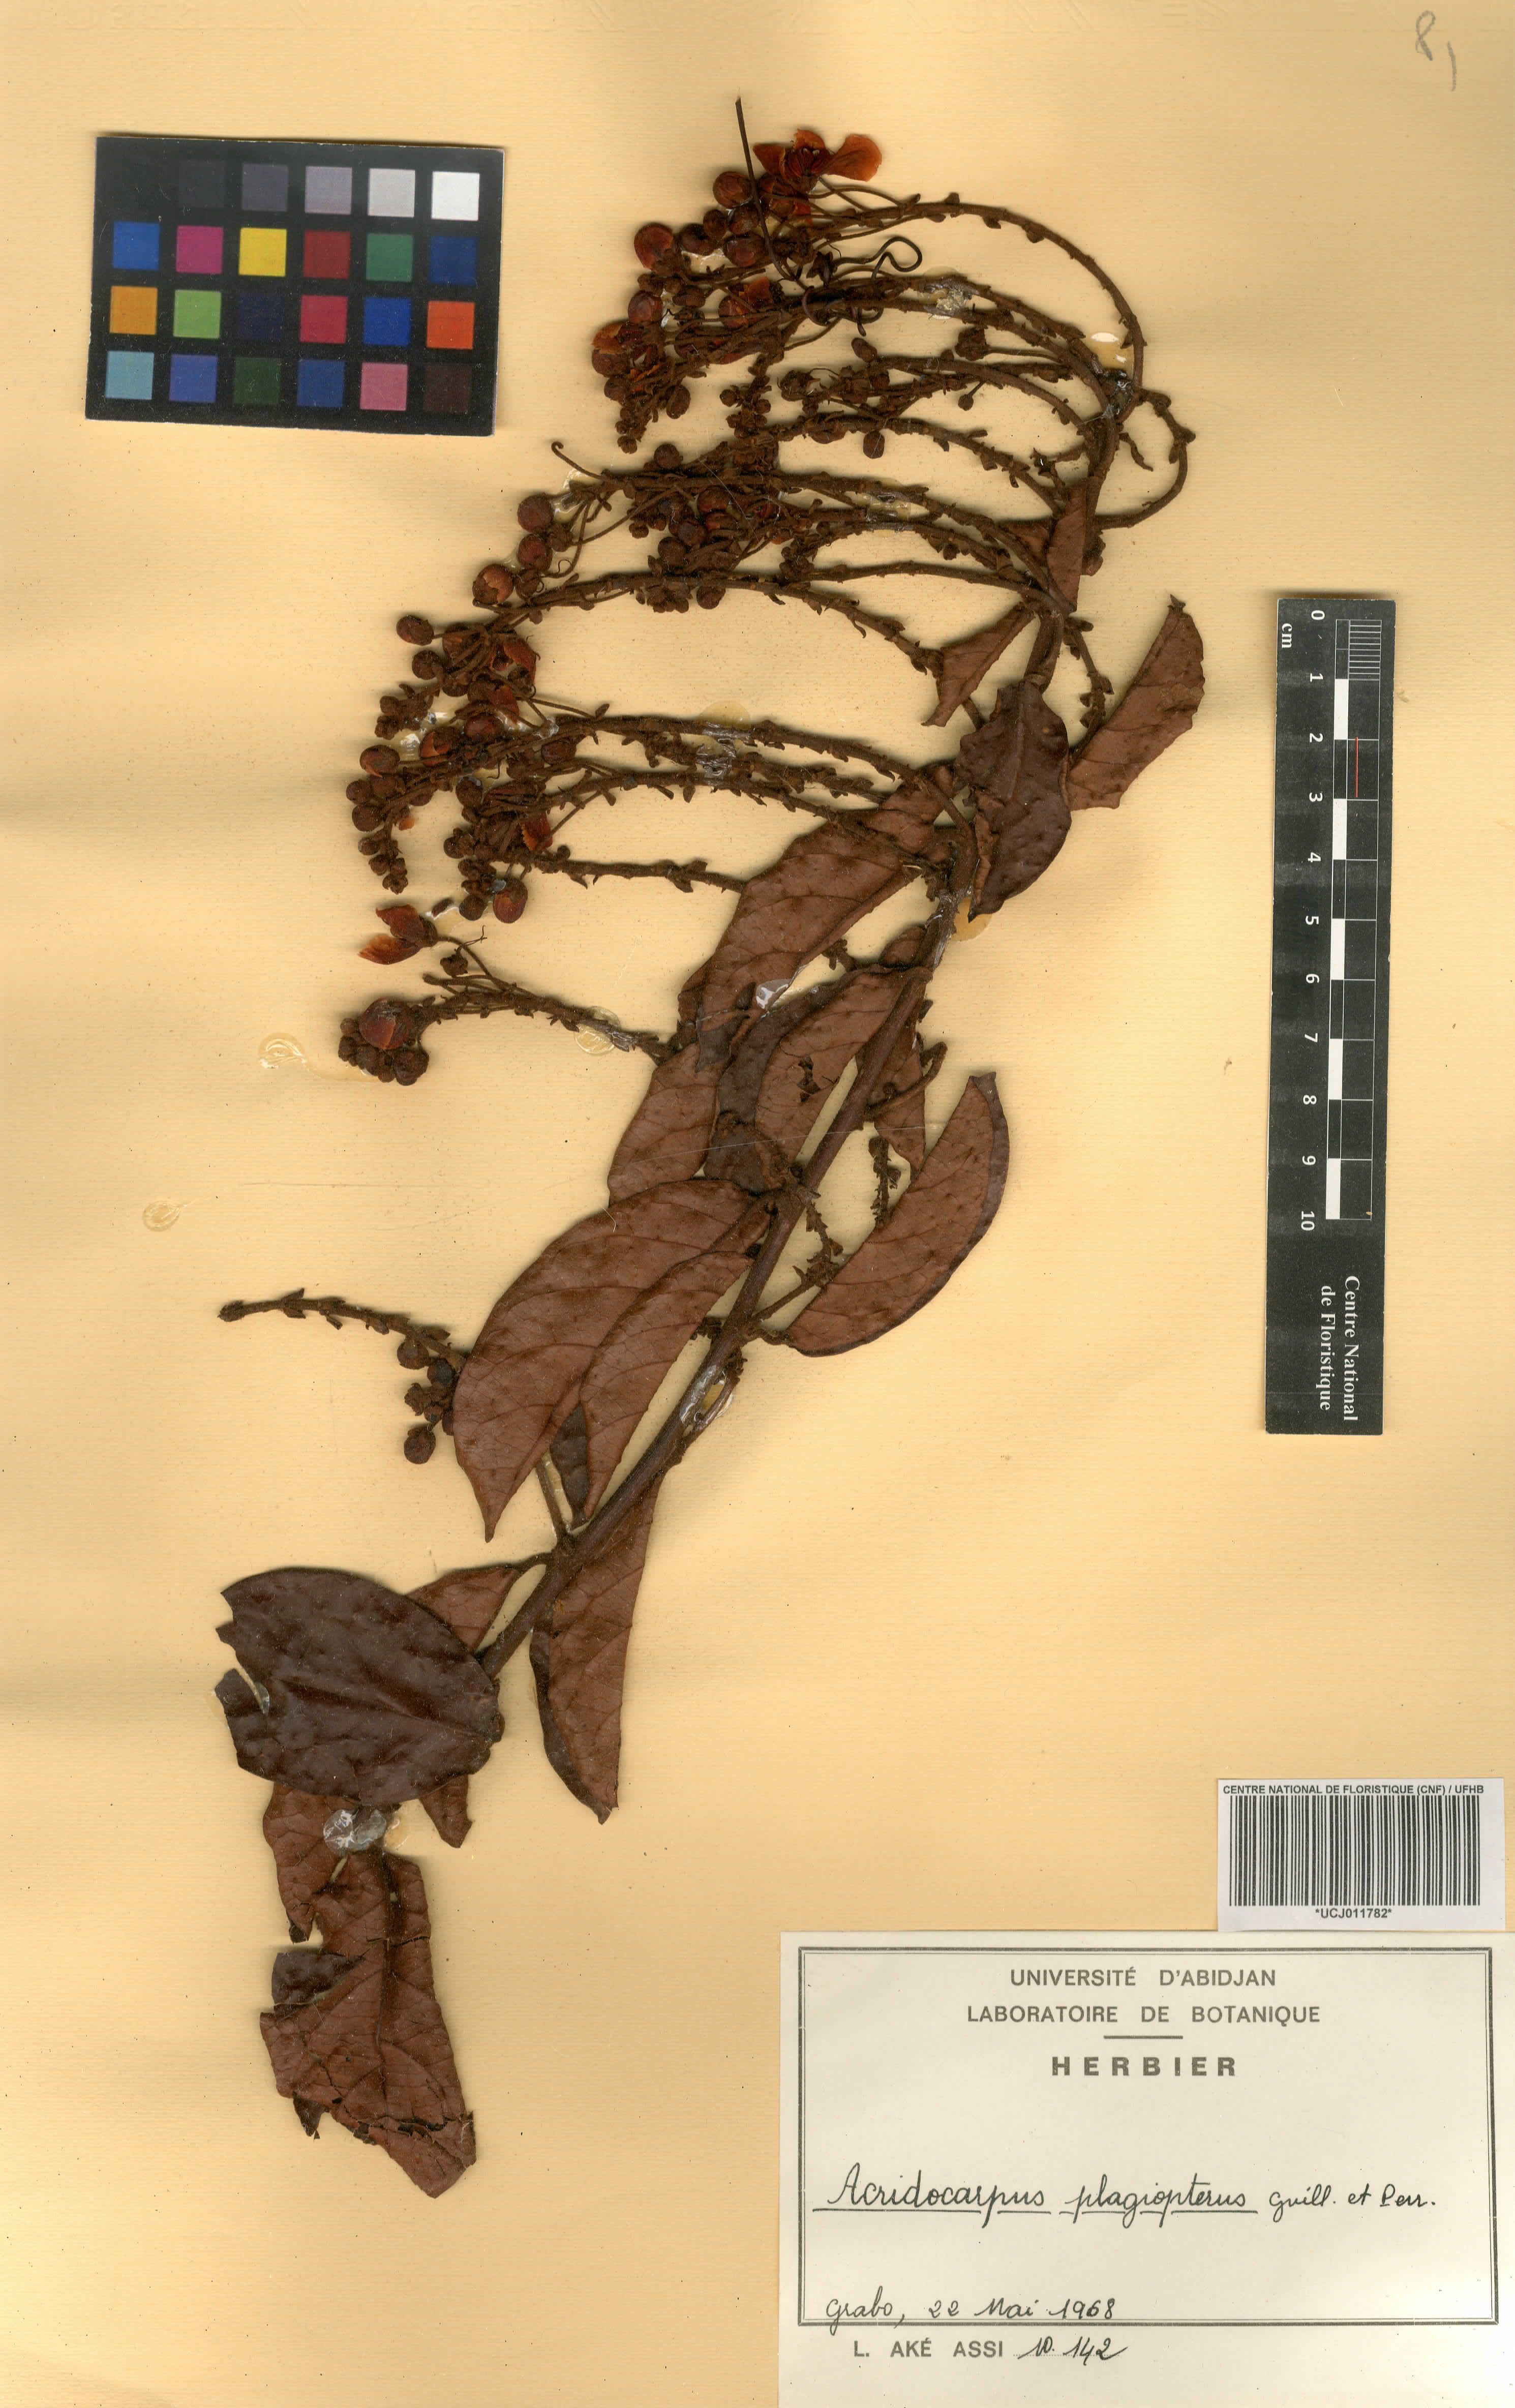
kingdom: Plantae
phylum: Tracheophyta
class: Magnoliopsida
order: Malpighiales
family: Malpighiaceae
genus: Acridocarpus
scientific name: Acridocarpus plagiopterus
